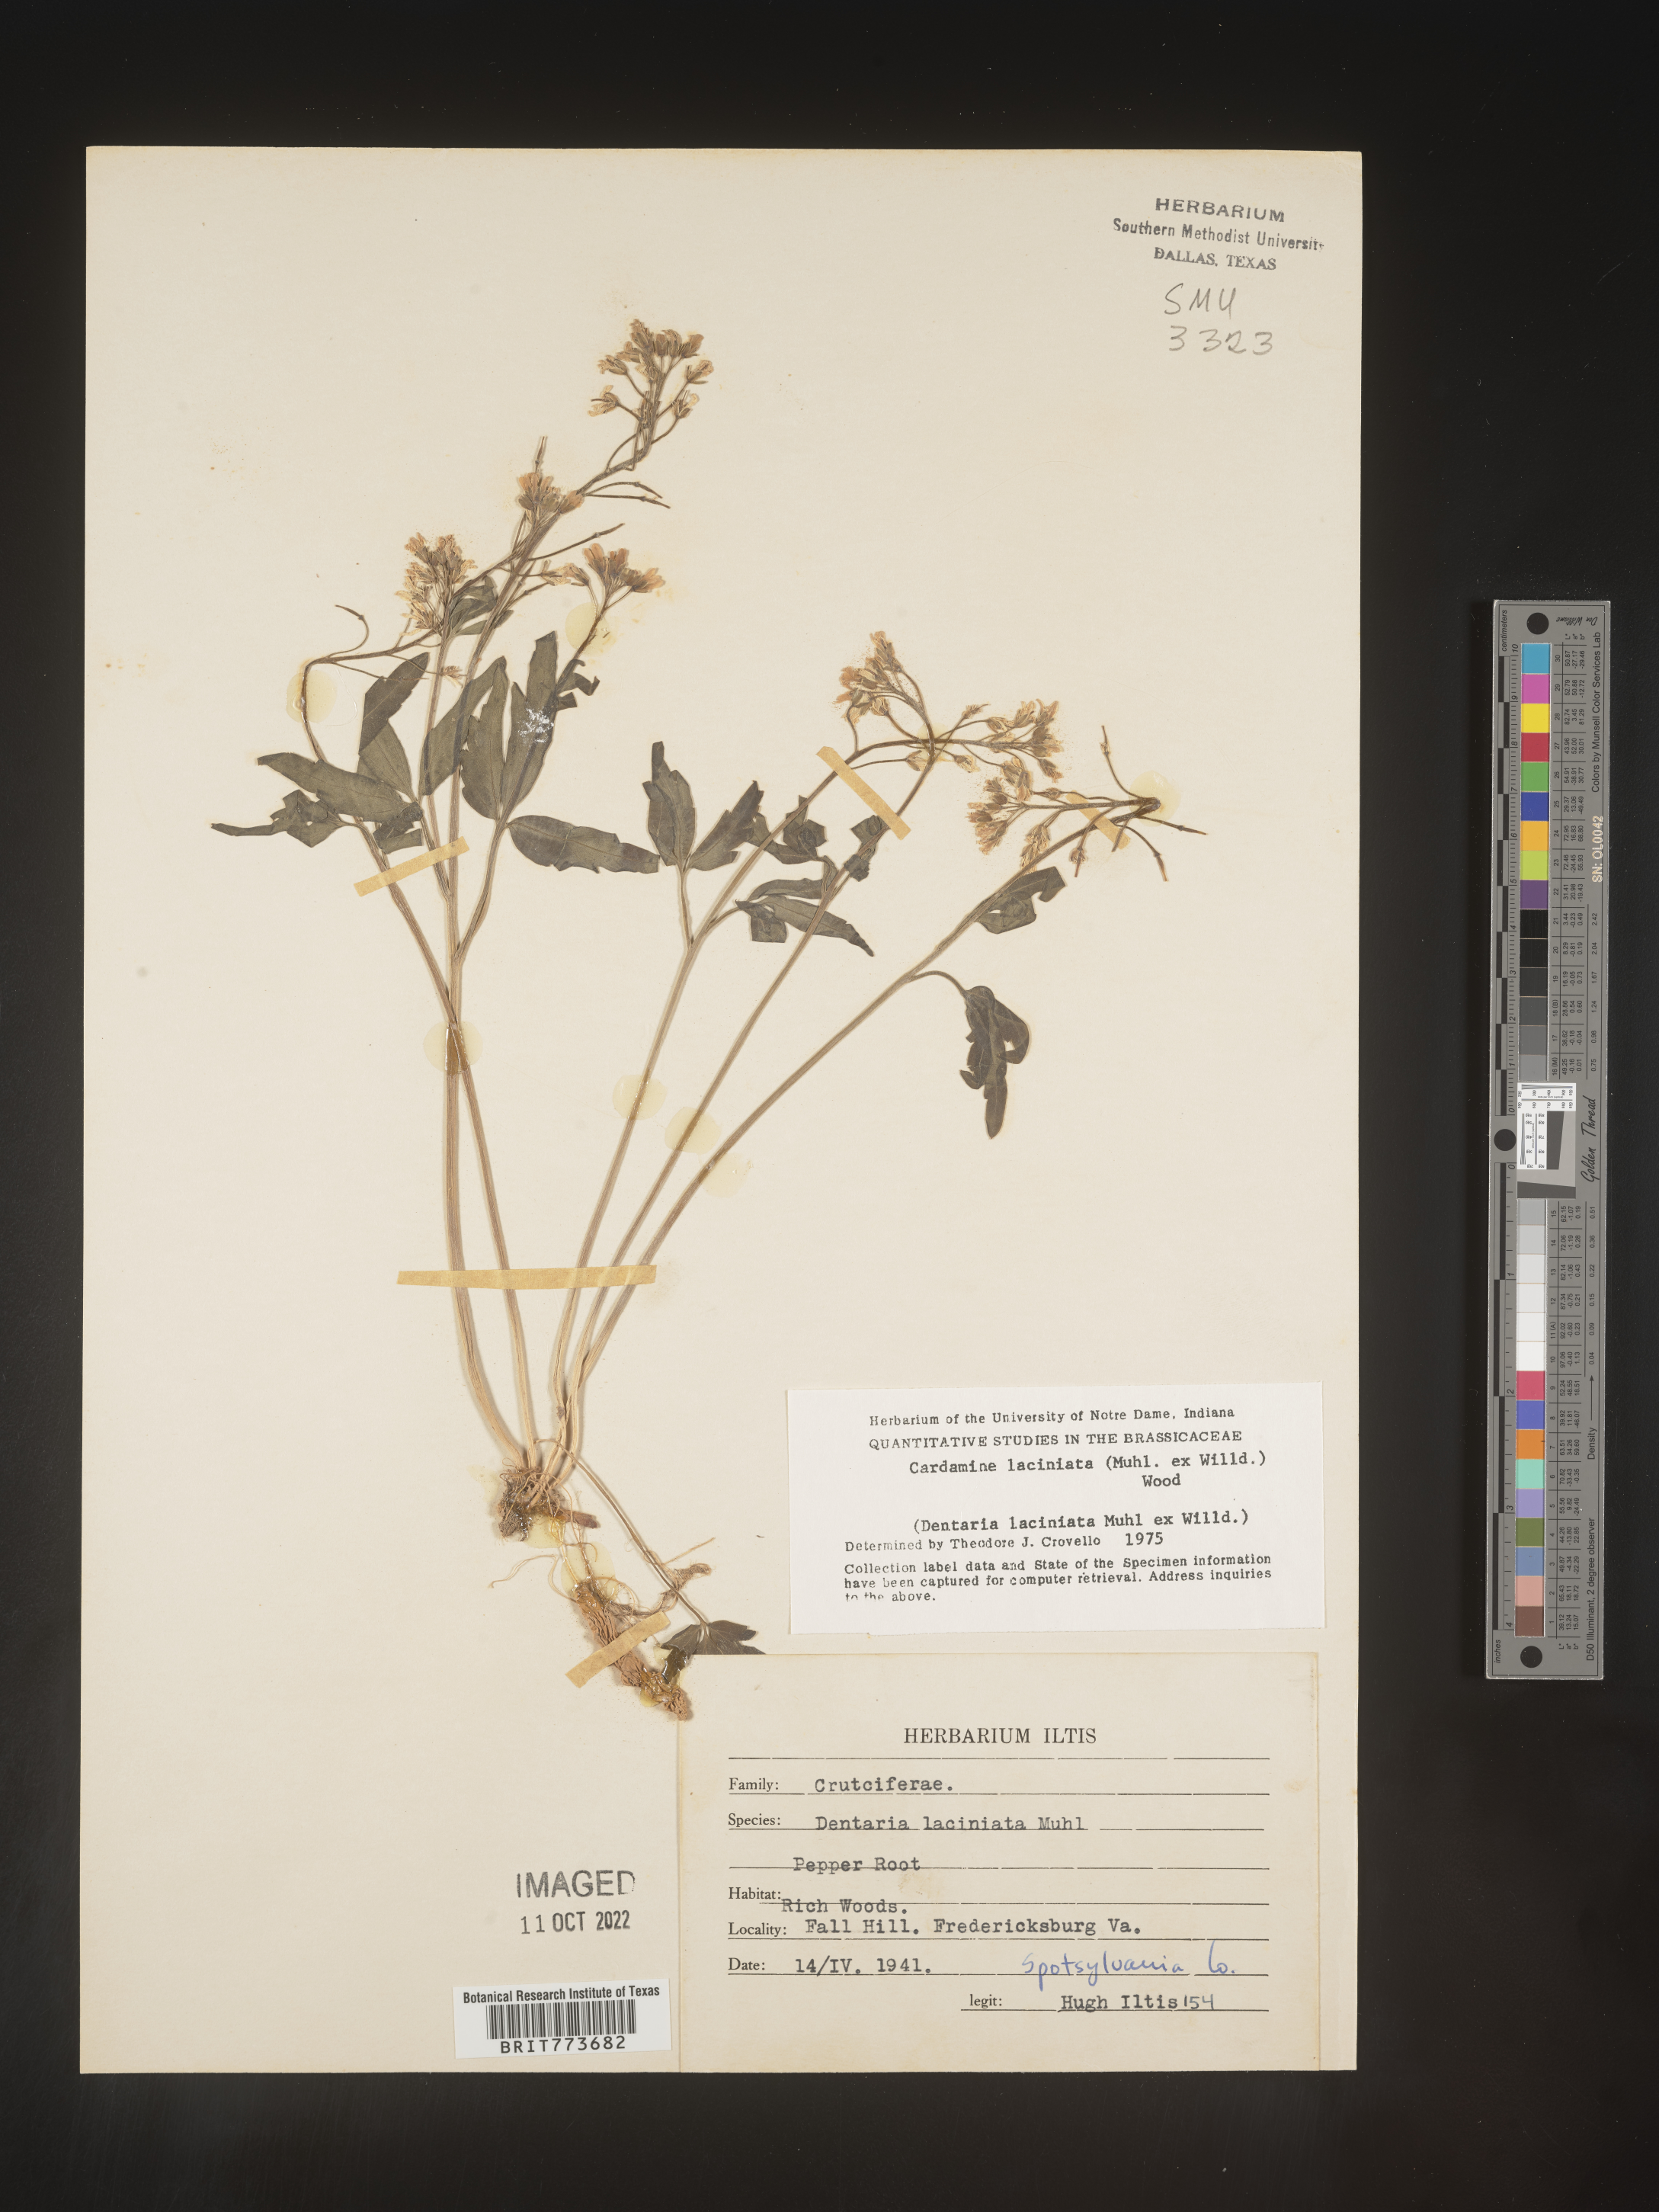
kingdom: Plantae
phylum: Tracheophyta
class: Magnoliopsida
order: Brassicales
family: Brassicaceae
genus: Rorippa
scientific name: Rorippa laciniata
